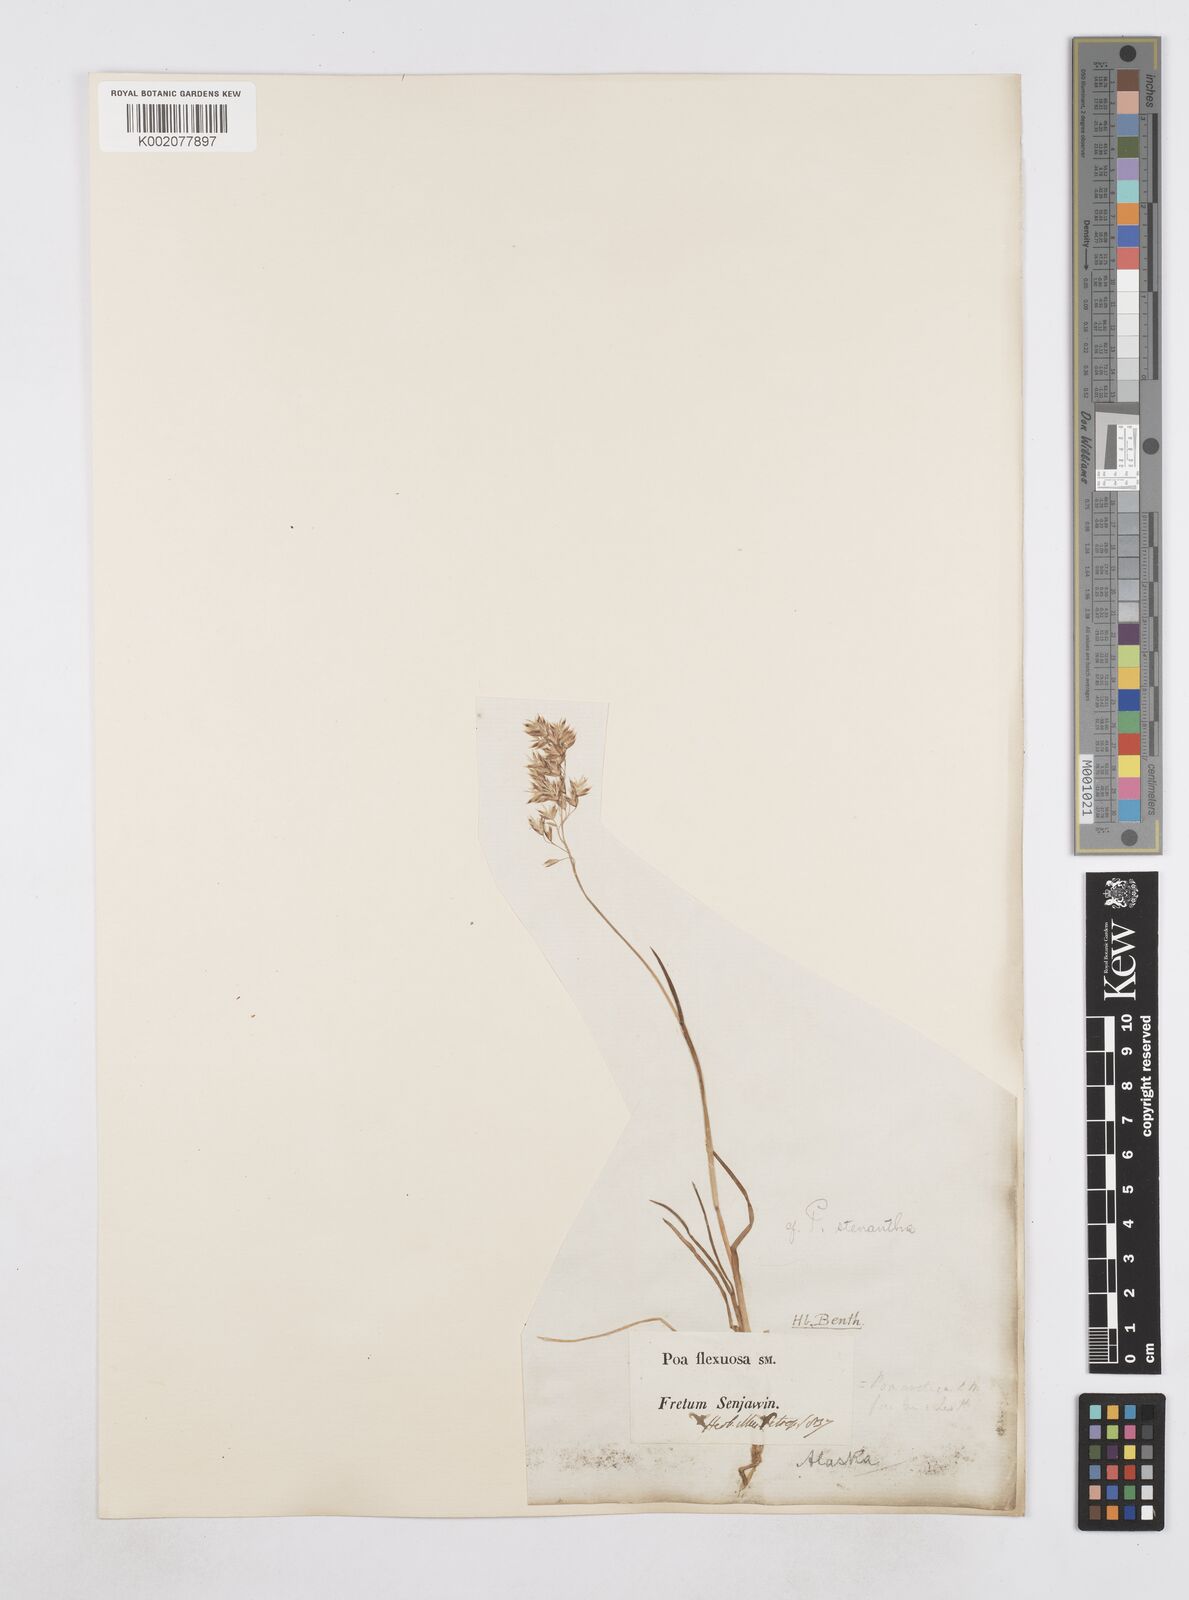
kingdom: Plantae
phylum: Tracheophyta
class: Liliopsida
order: Poales
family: Poaceae
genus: Poa
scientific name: Poa stenantha
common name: Narrow-flowered bluegrass
